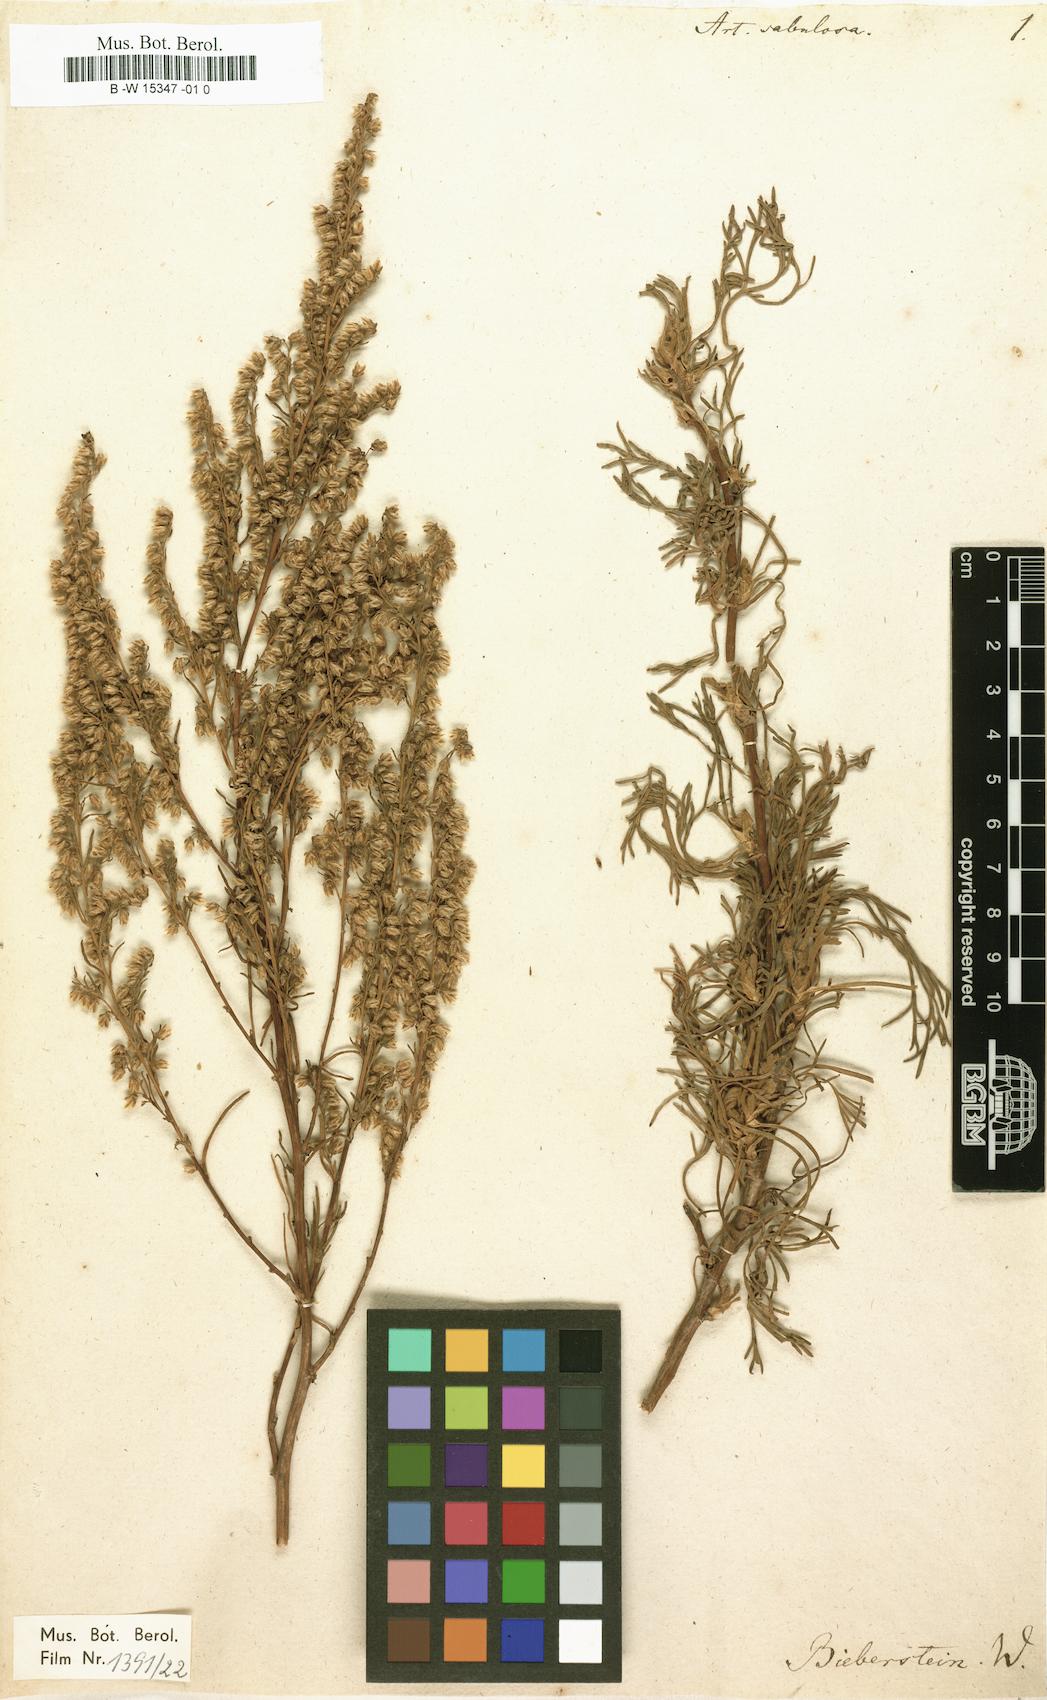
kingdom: Plantae
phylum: Tracheophyta
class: Magnoliopsida
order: Asterales
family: Asteraceae
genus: Artemisia
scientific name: Artemisia arenaria
